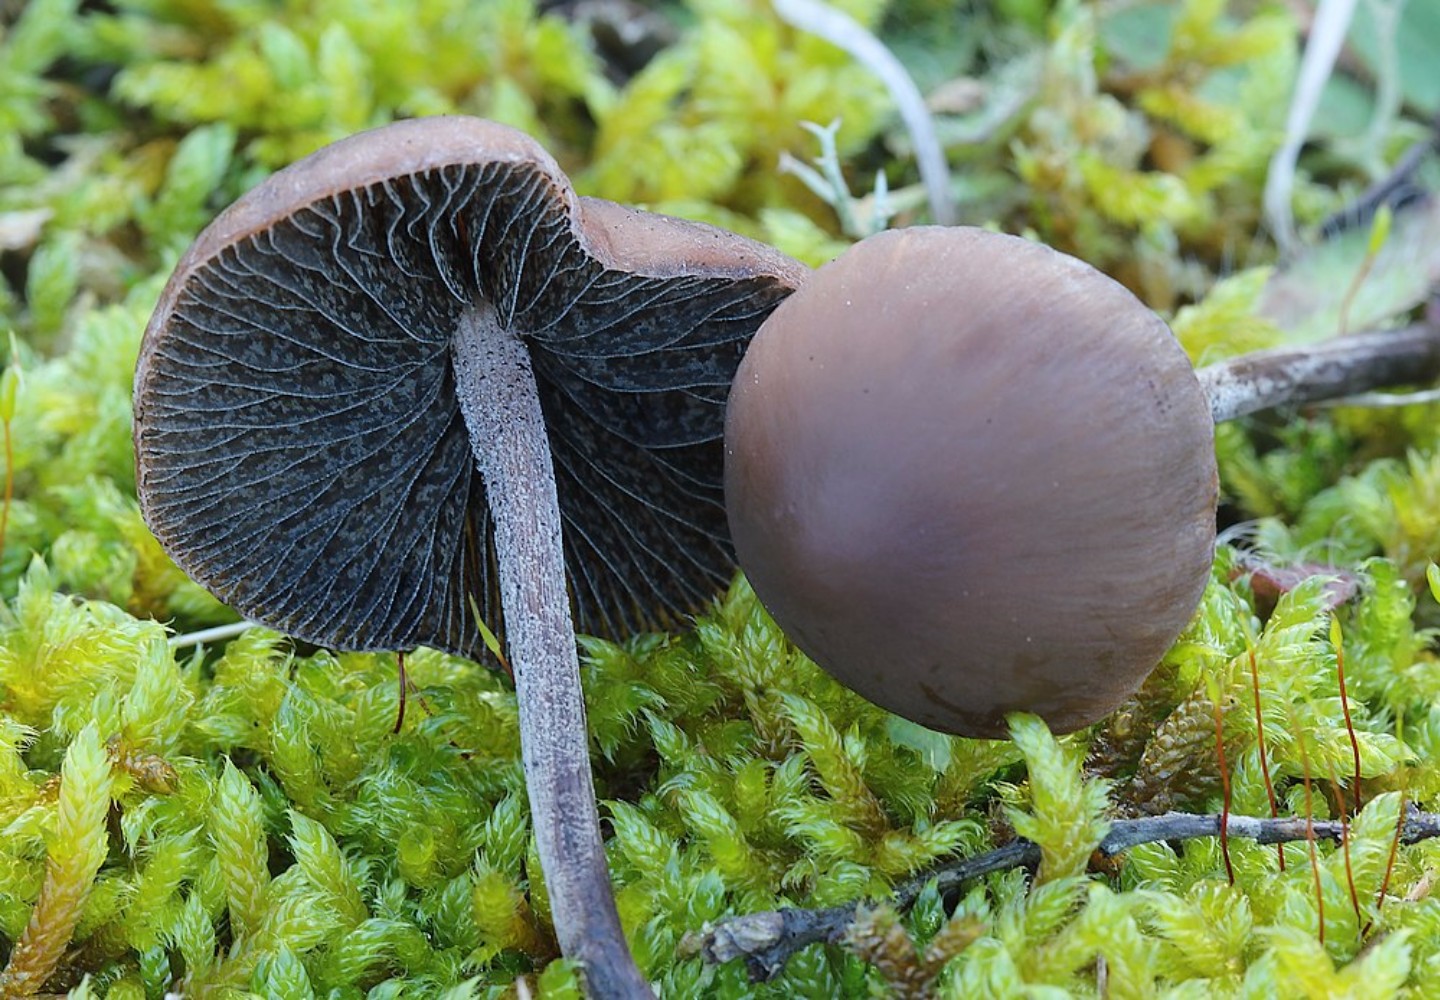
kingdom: Fungi
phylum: Basidiomycota
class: Agaricomycetes
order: Agaricales
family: Bolbitiaceae
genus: Panaeolus
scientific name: Panaeolus
